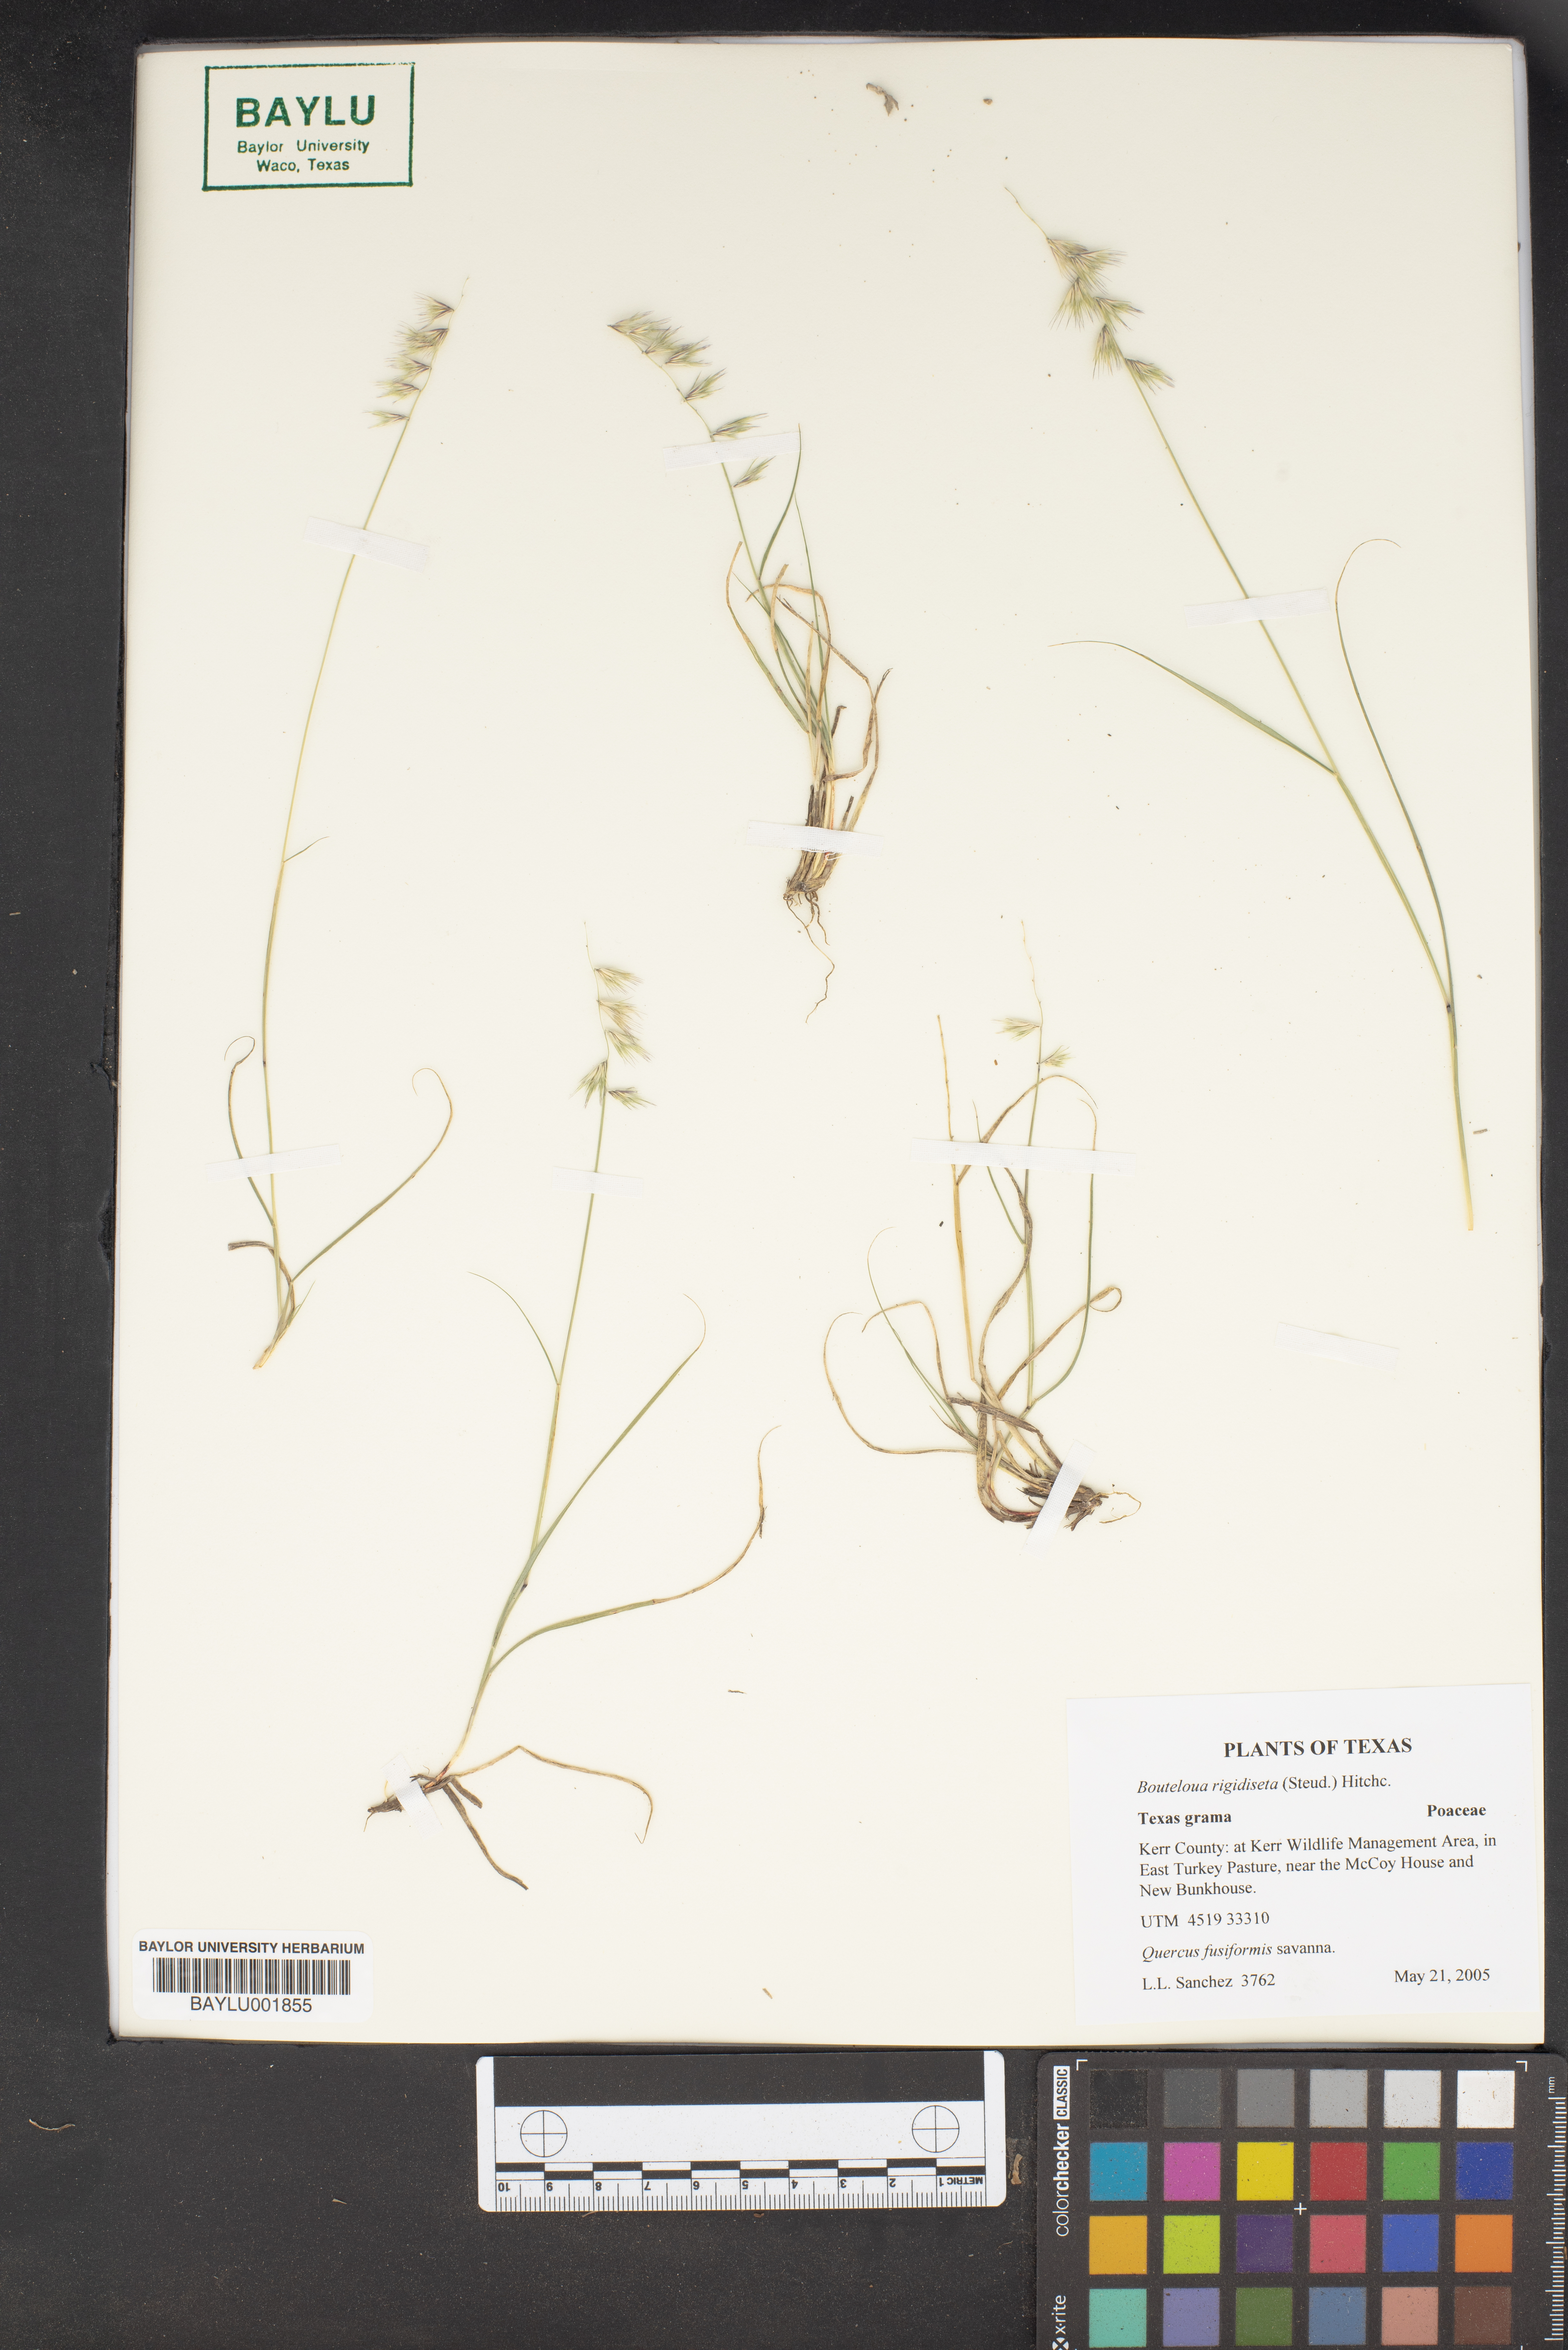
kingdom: Plantae
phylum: Tracheophyta
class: Liliopsida
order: Poales
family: Poaceae
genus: Bouteloua
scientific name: Bouteloua rigidiseta
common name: Texas grama
